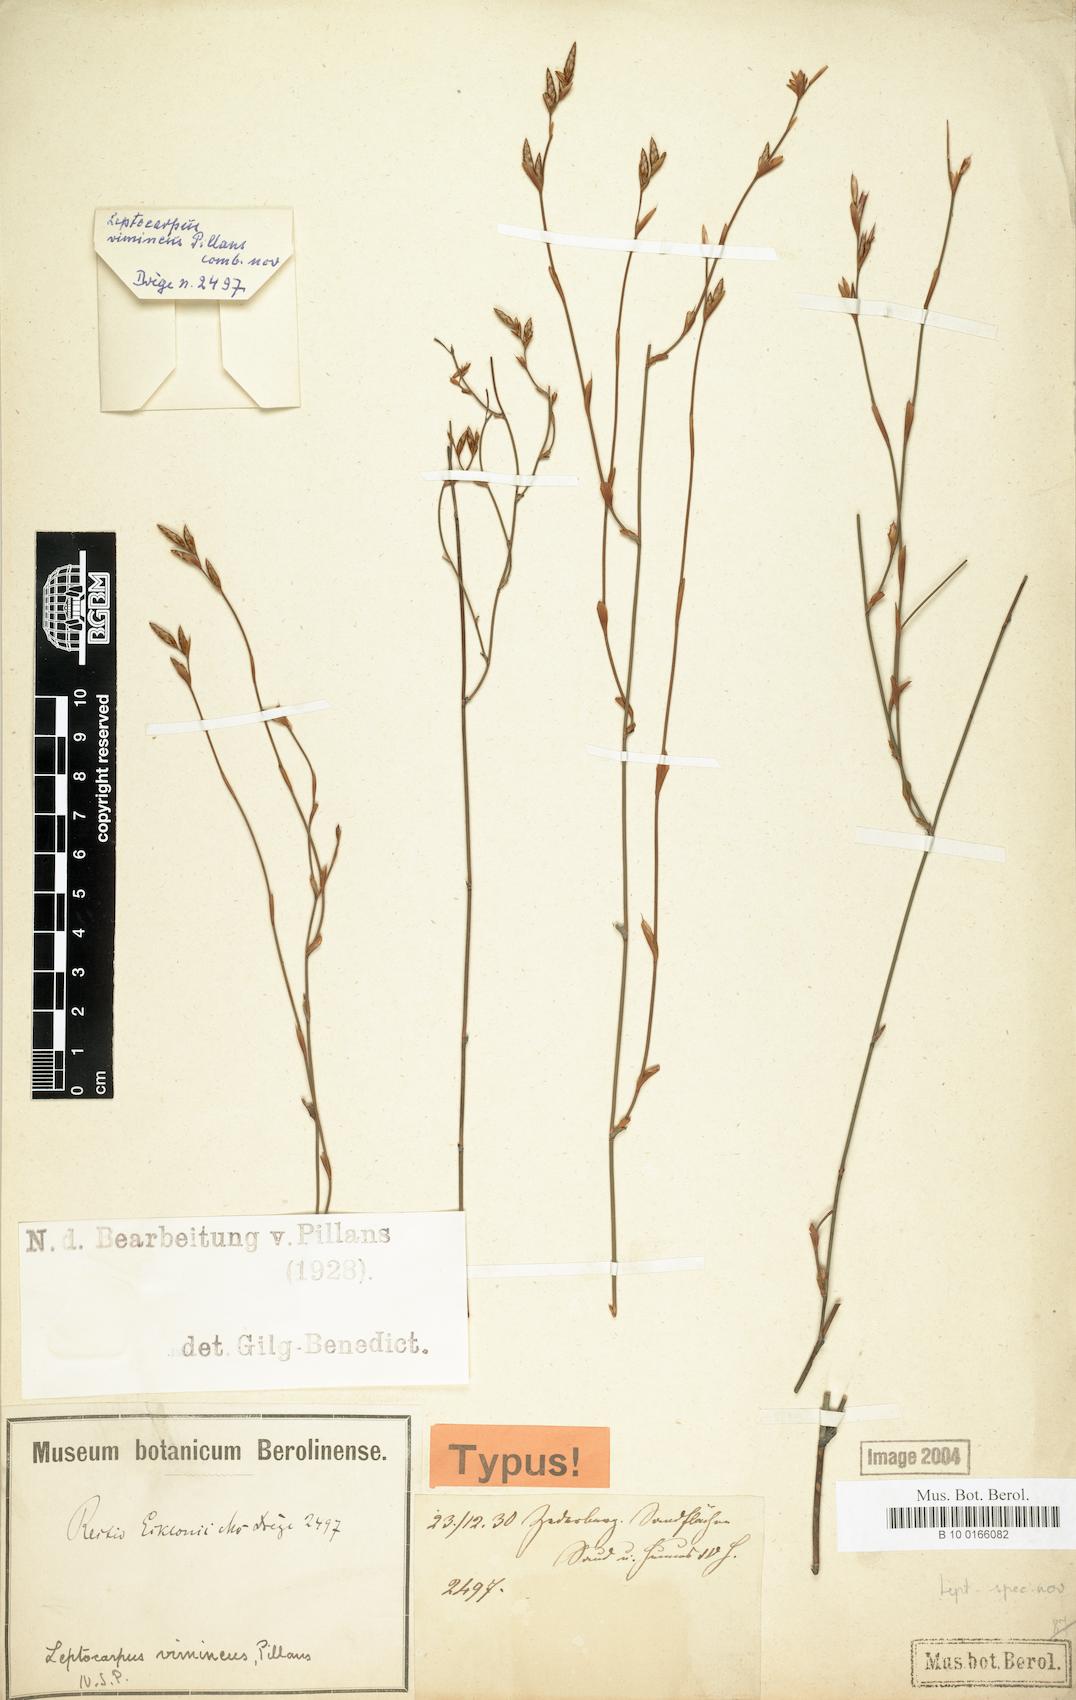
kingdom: Plantae
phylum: Tracheophyta
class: Liliopsida
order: Poales
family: Restionaceae
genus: Restio
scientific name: Restio vimineus
